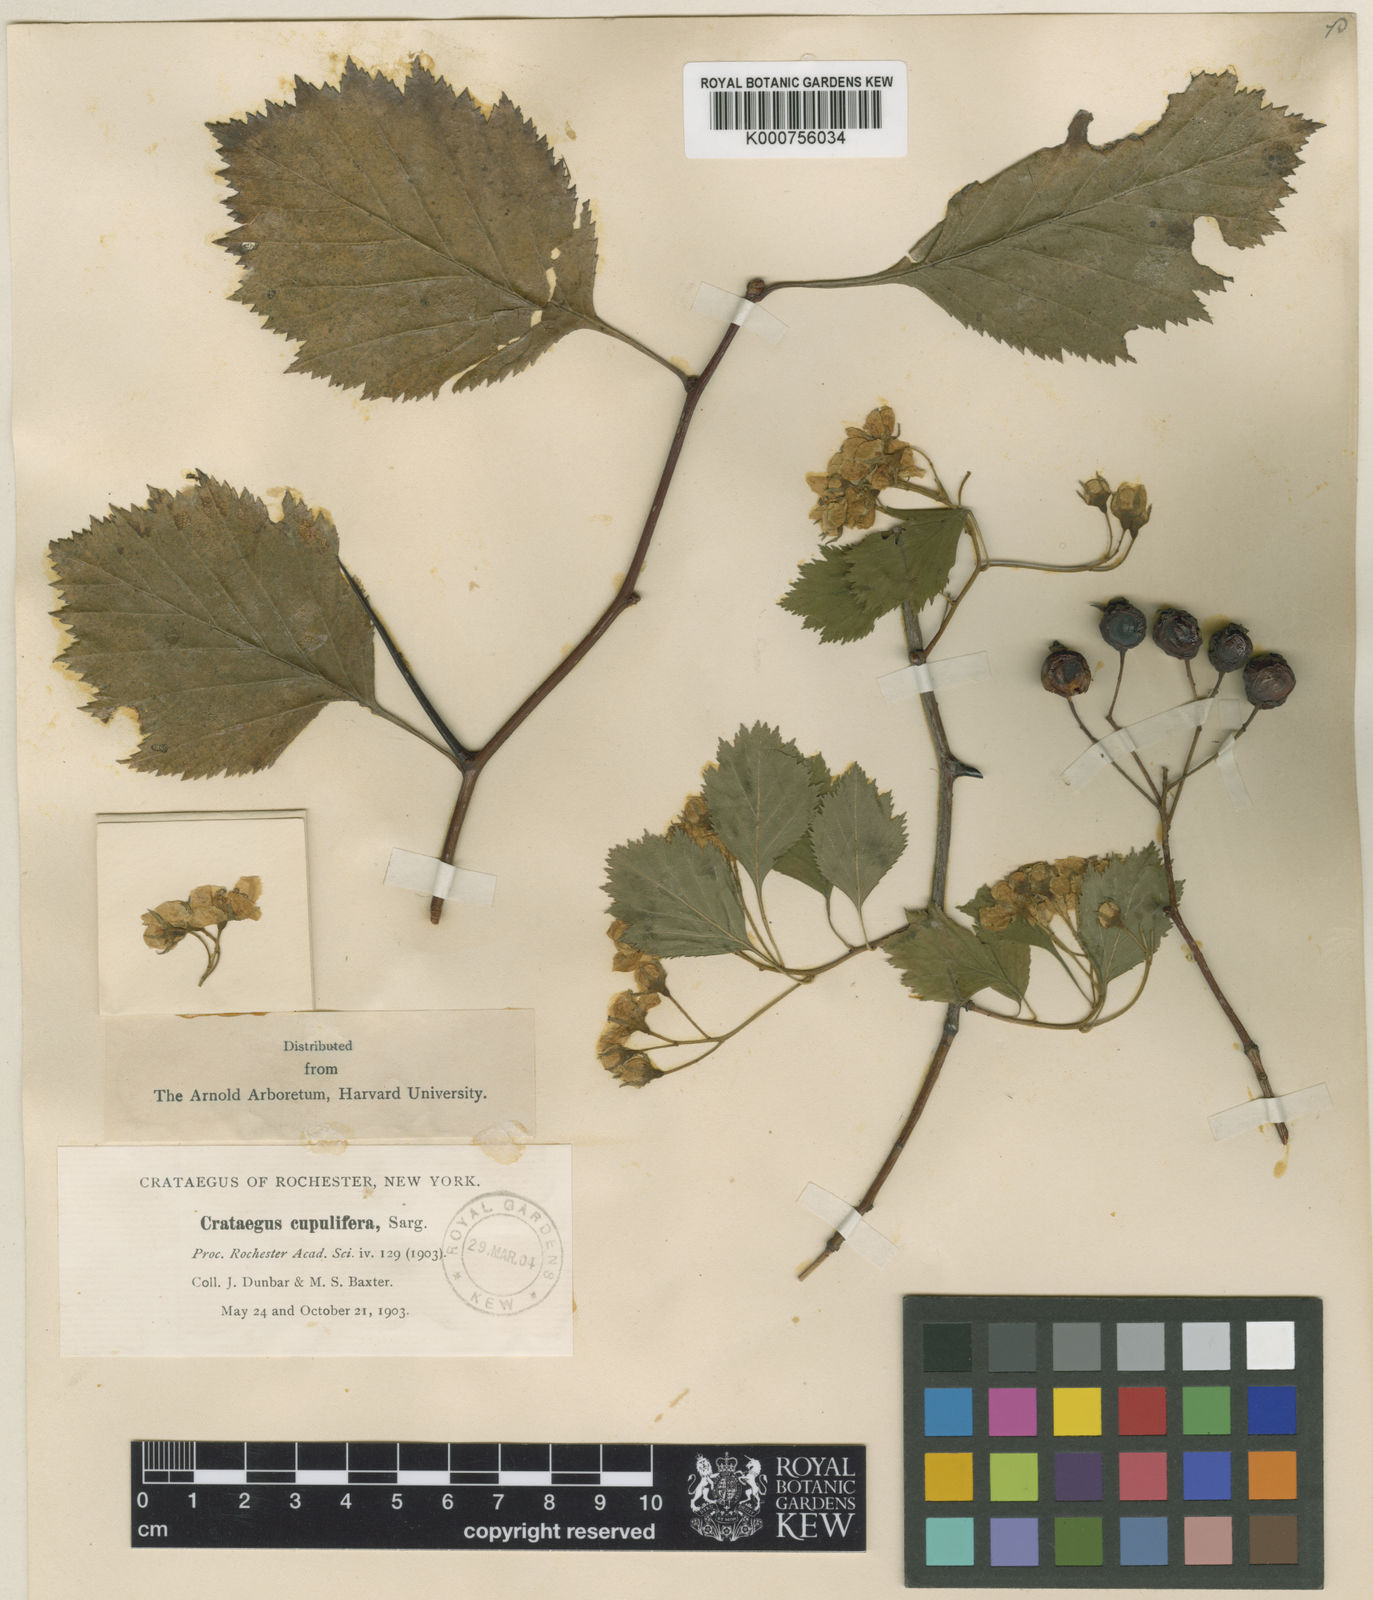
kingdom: Plantae
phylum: Tracheophyta
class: Magnoliopsida
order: Rosales
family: Rosaceae
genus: Crataegus
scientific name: Crataegus cupulifera
